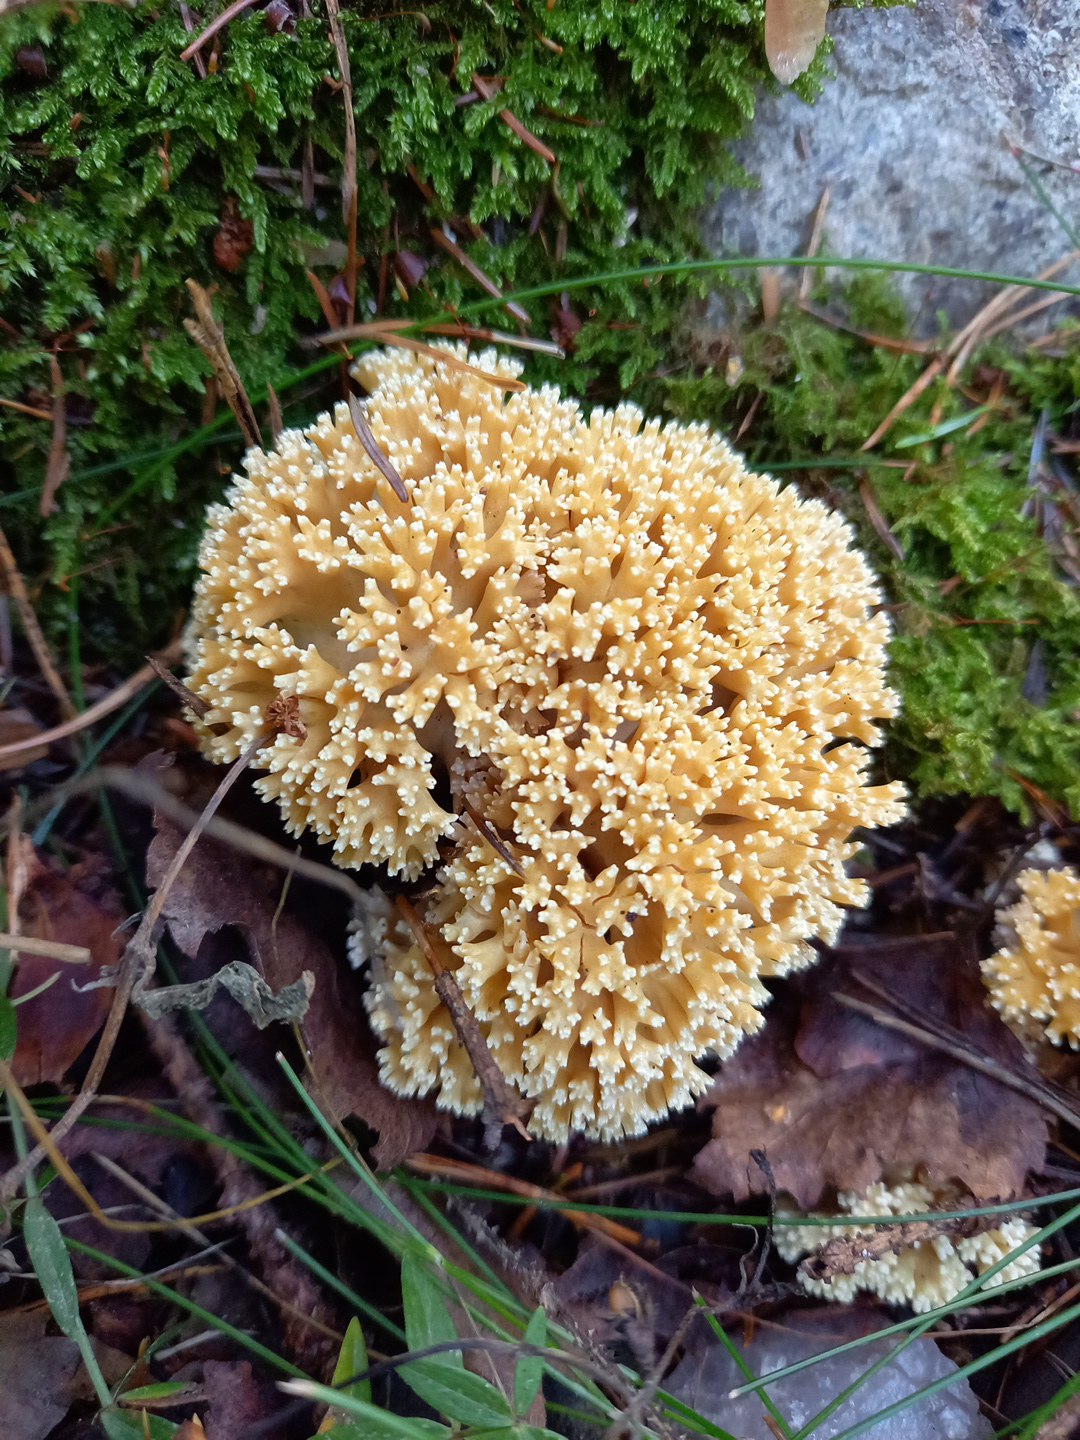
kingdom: Fungi
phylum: Basidiomycota
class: Agaricomycetes
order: Gomphales
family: Gomphaceae
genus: Ramaria
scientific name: Ramaria
